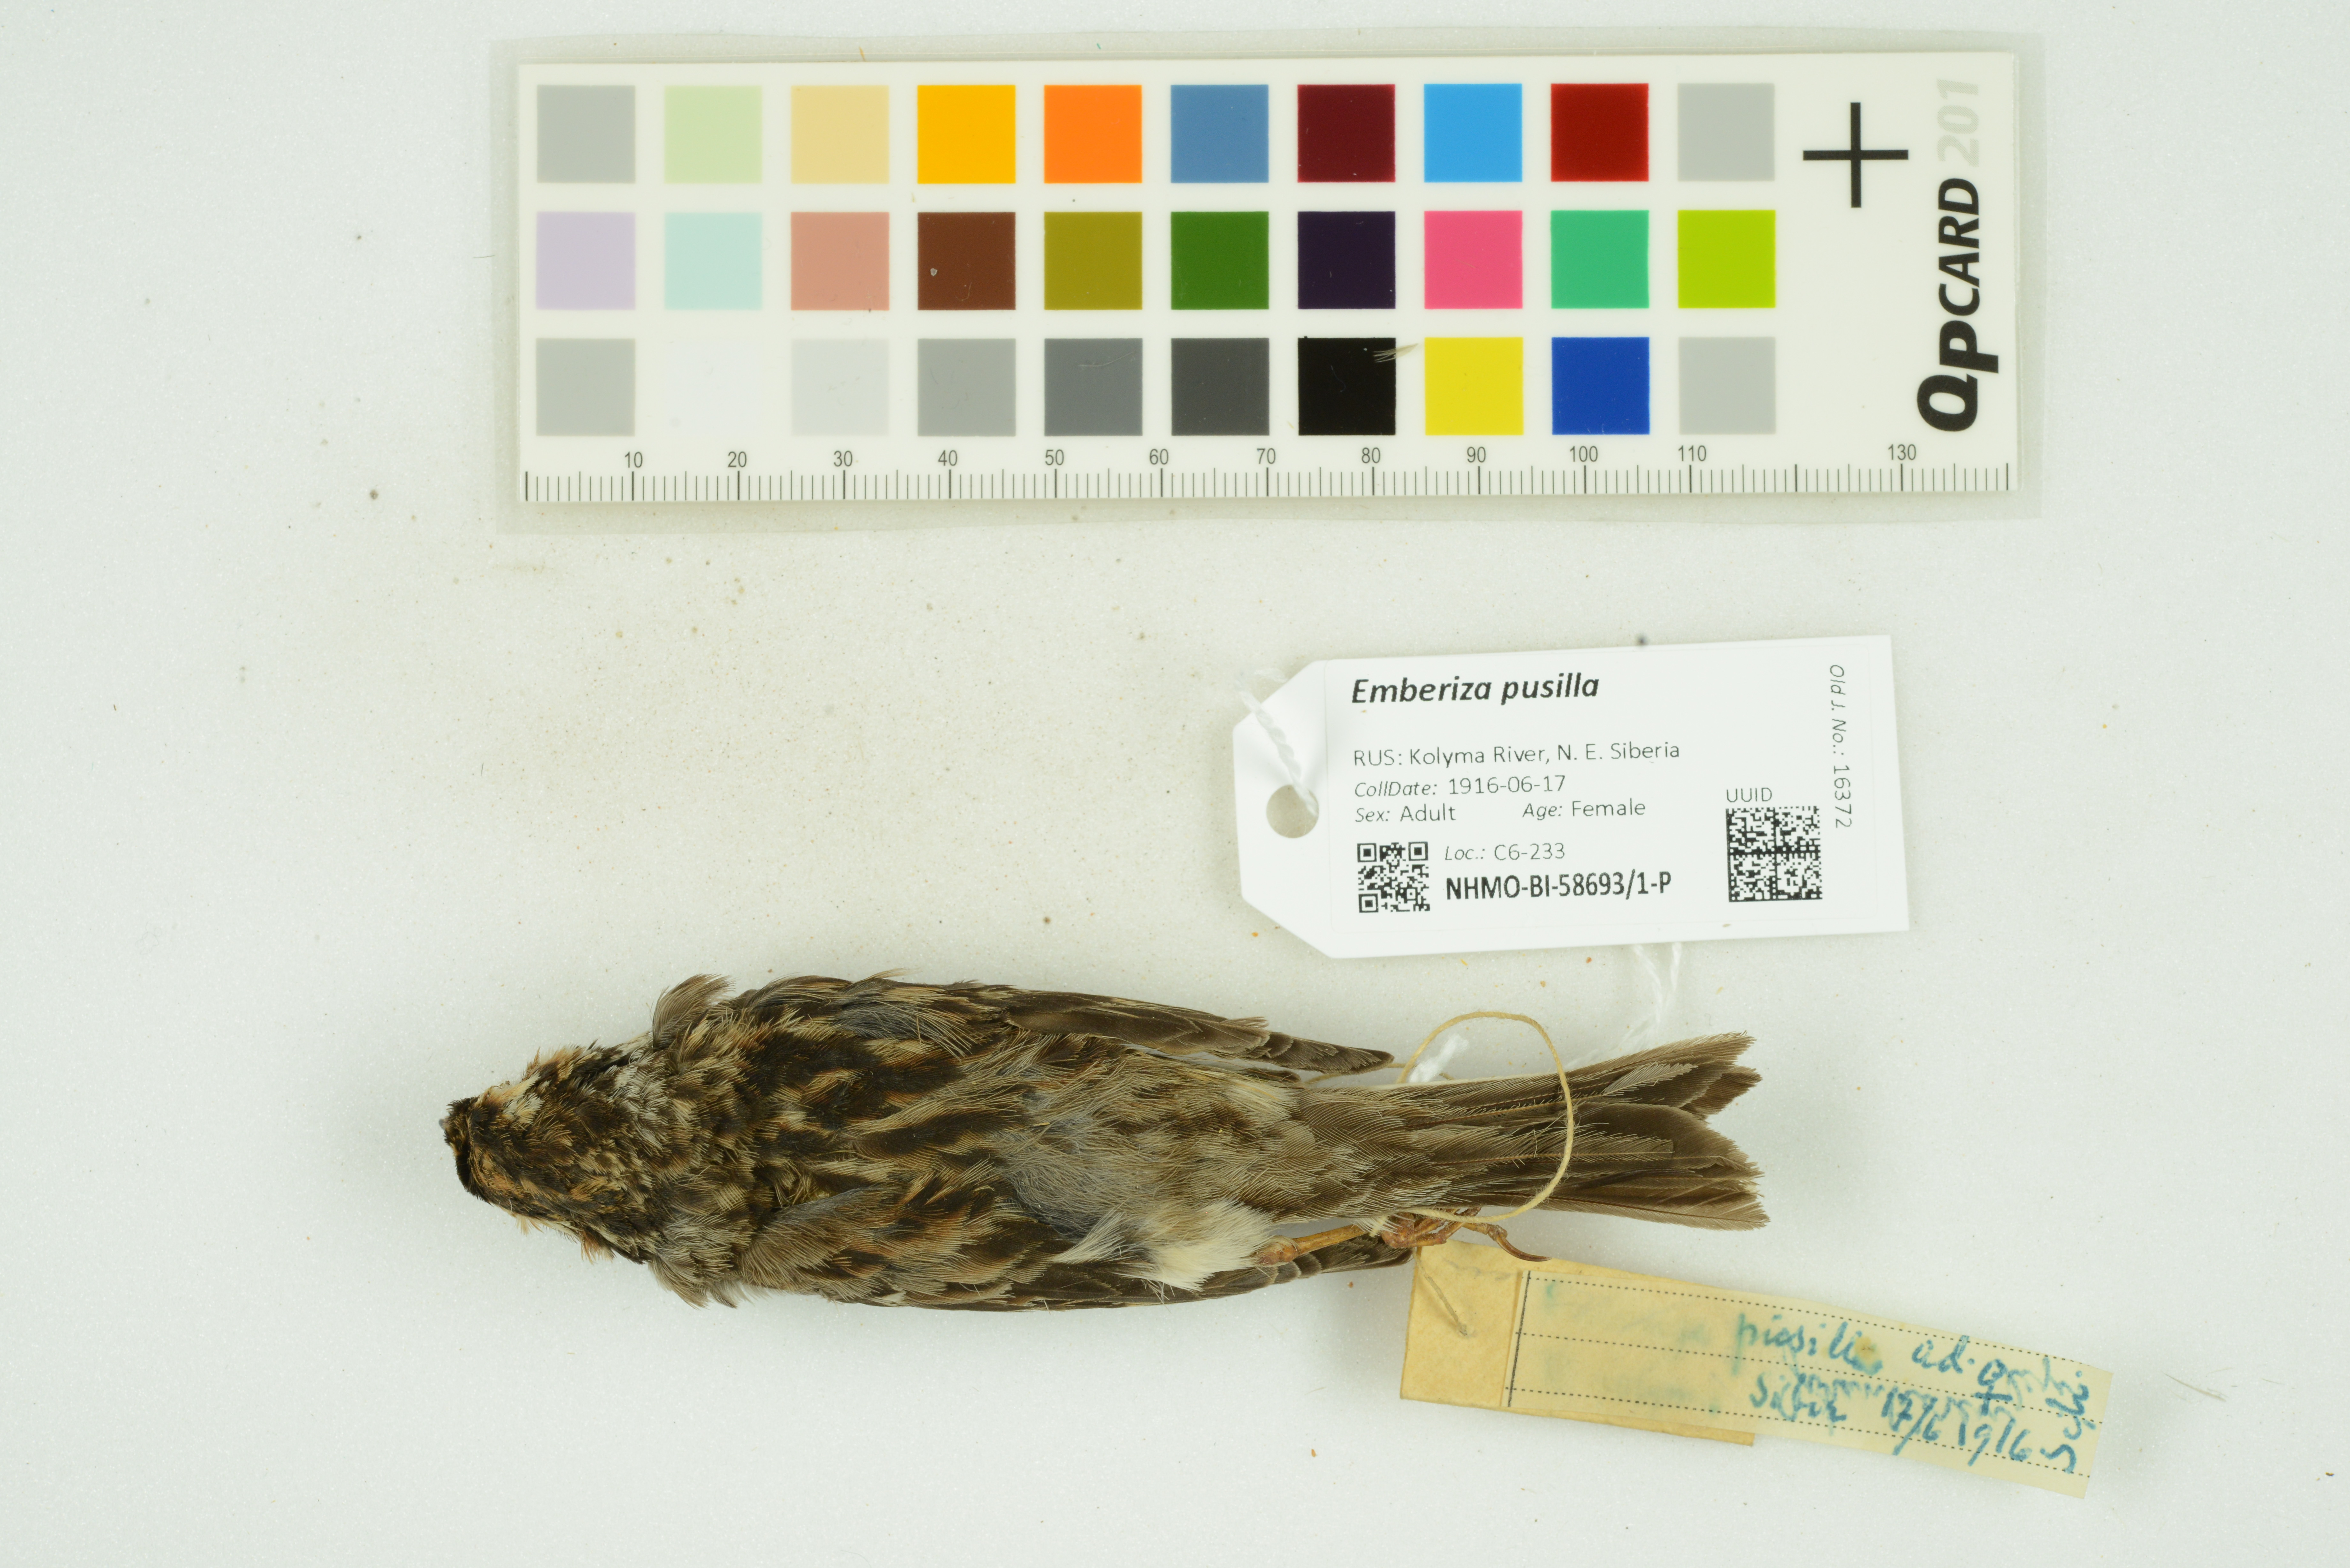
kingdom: Animalia
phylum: Chordata
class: Aves
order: Passeriformes
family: Emberizidae
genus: Emberiza
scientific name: Emberiza pusilla
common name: Little bunting
